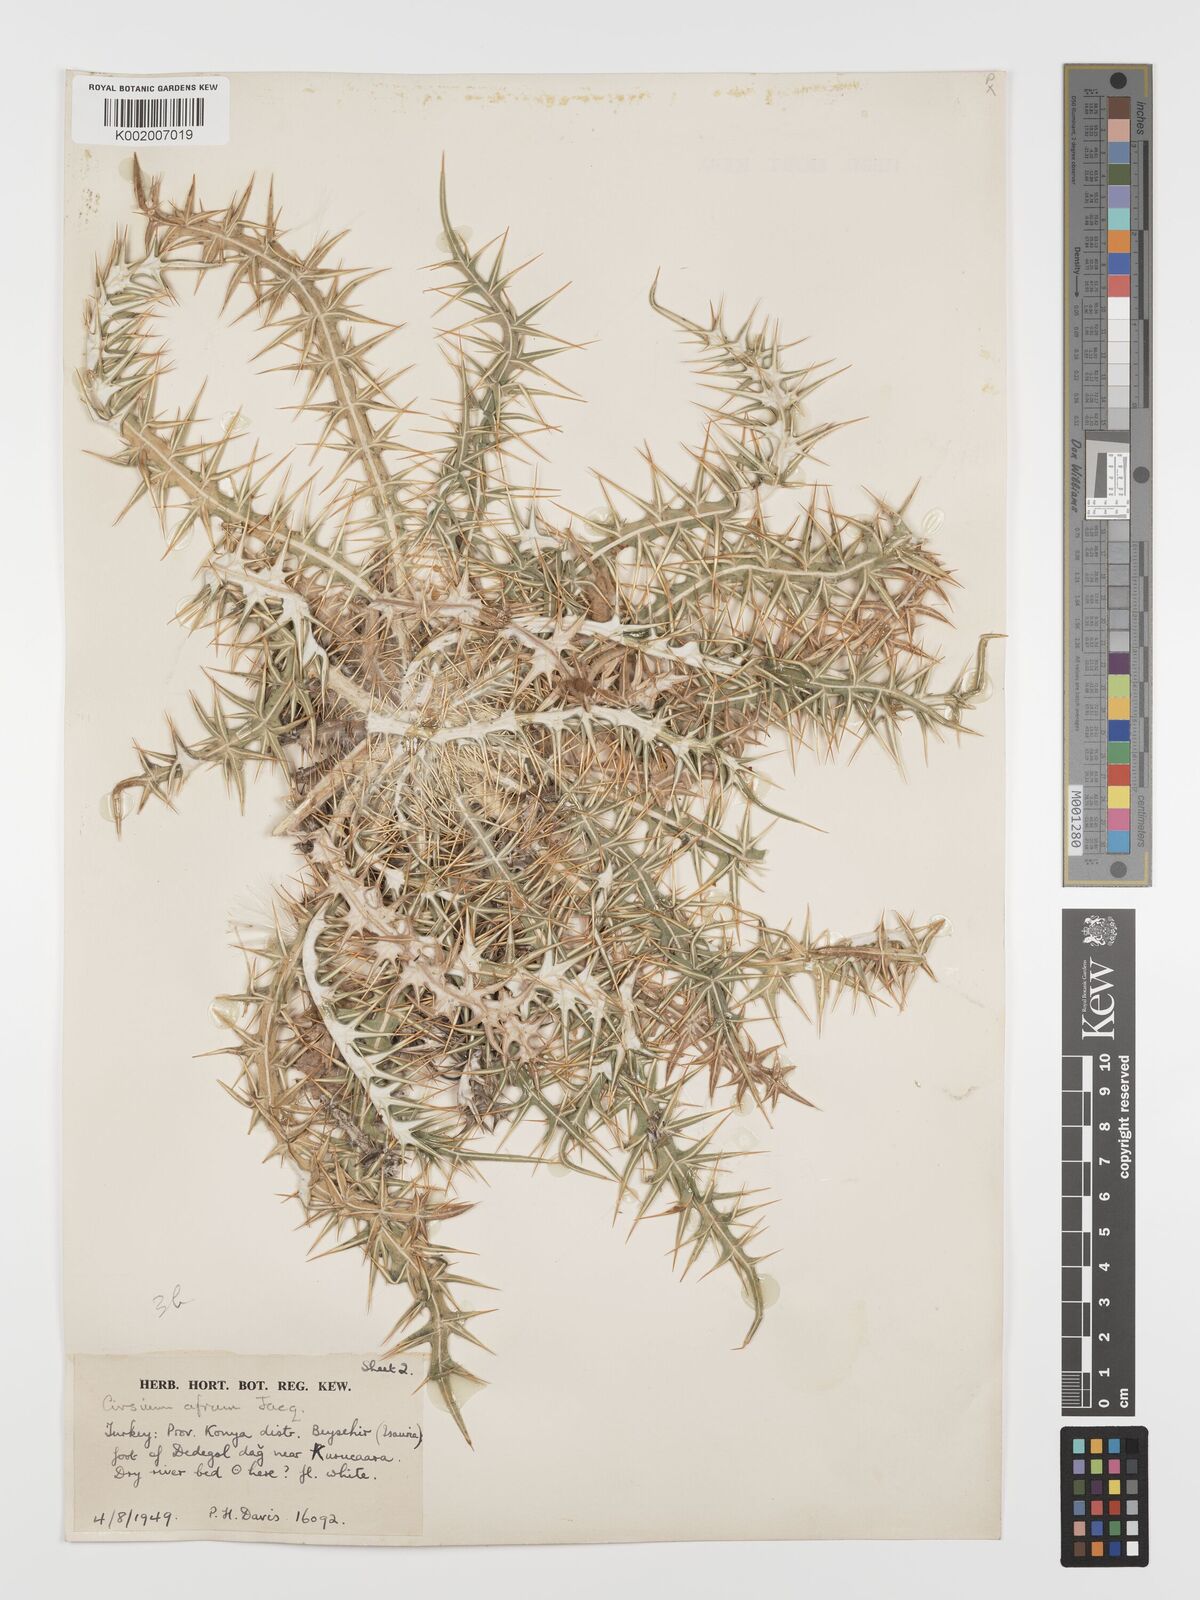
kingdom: Plantae
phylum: Tracheophyta
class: Magnoliopsida
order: Asterales
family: Asteraceae
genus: Ptilostemon
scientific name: Ptilostemon afer
